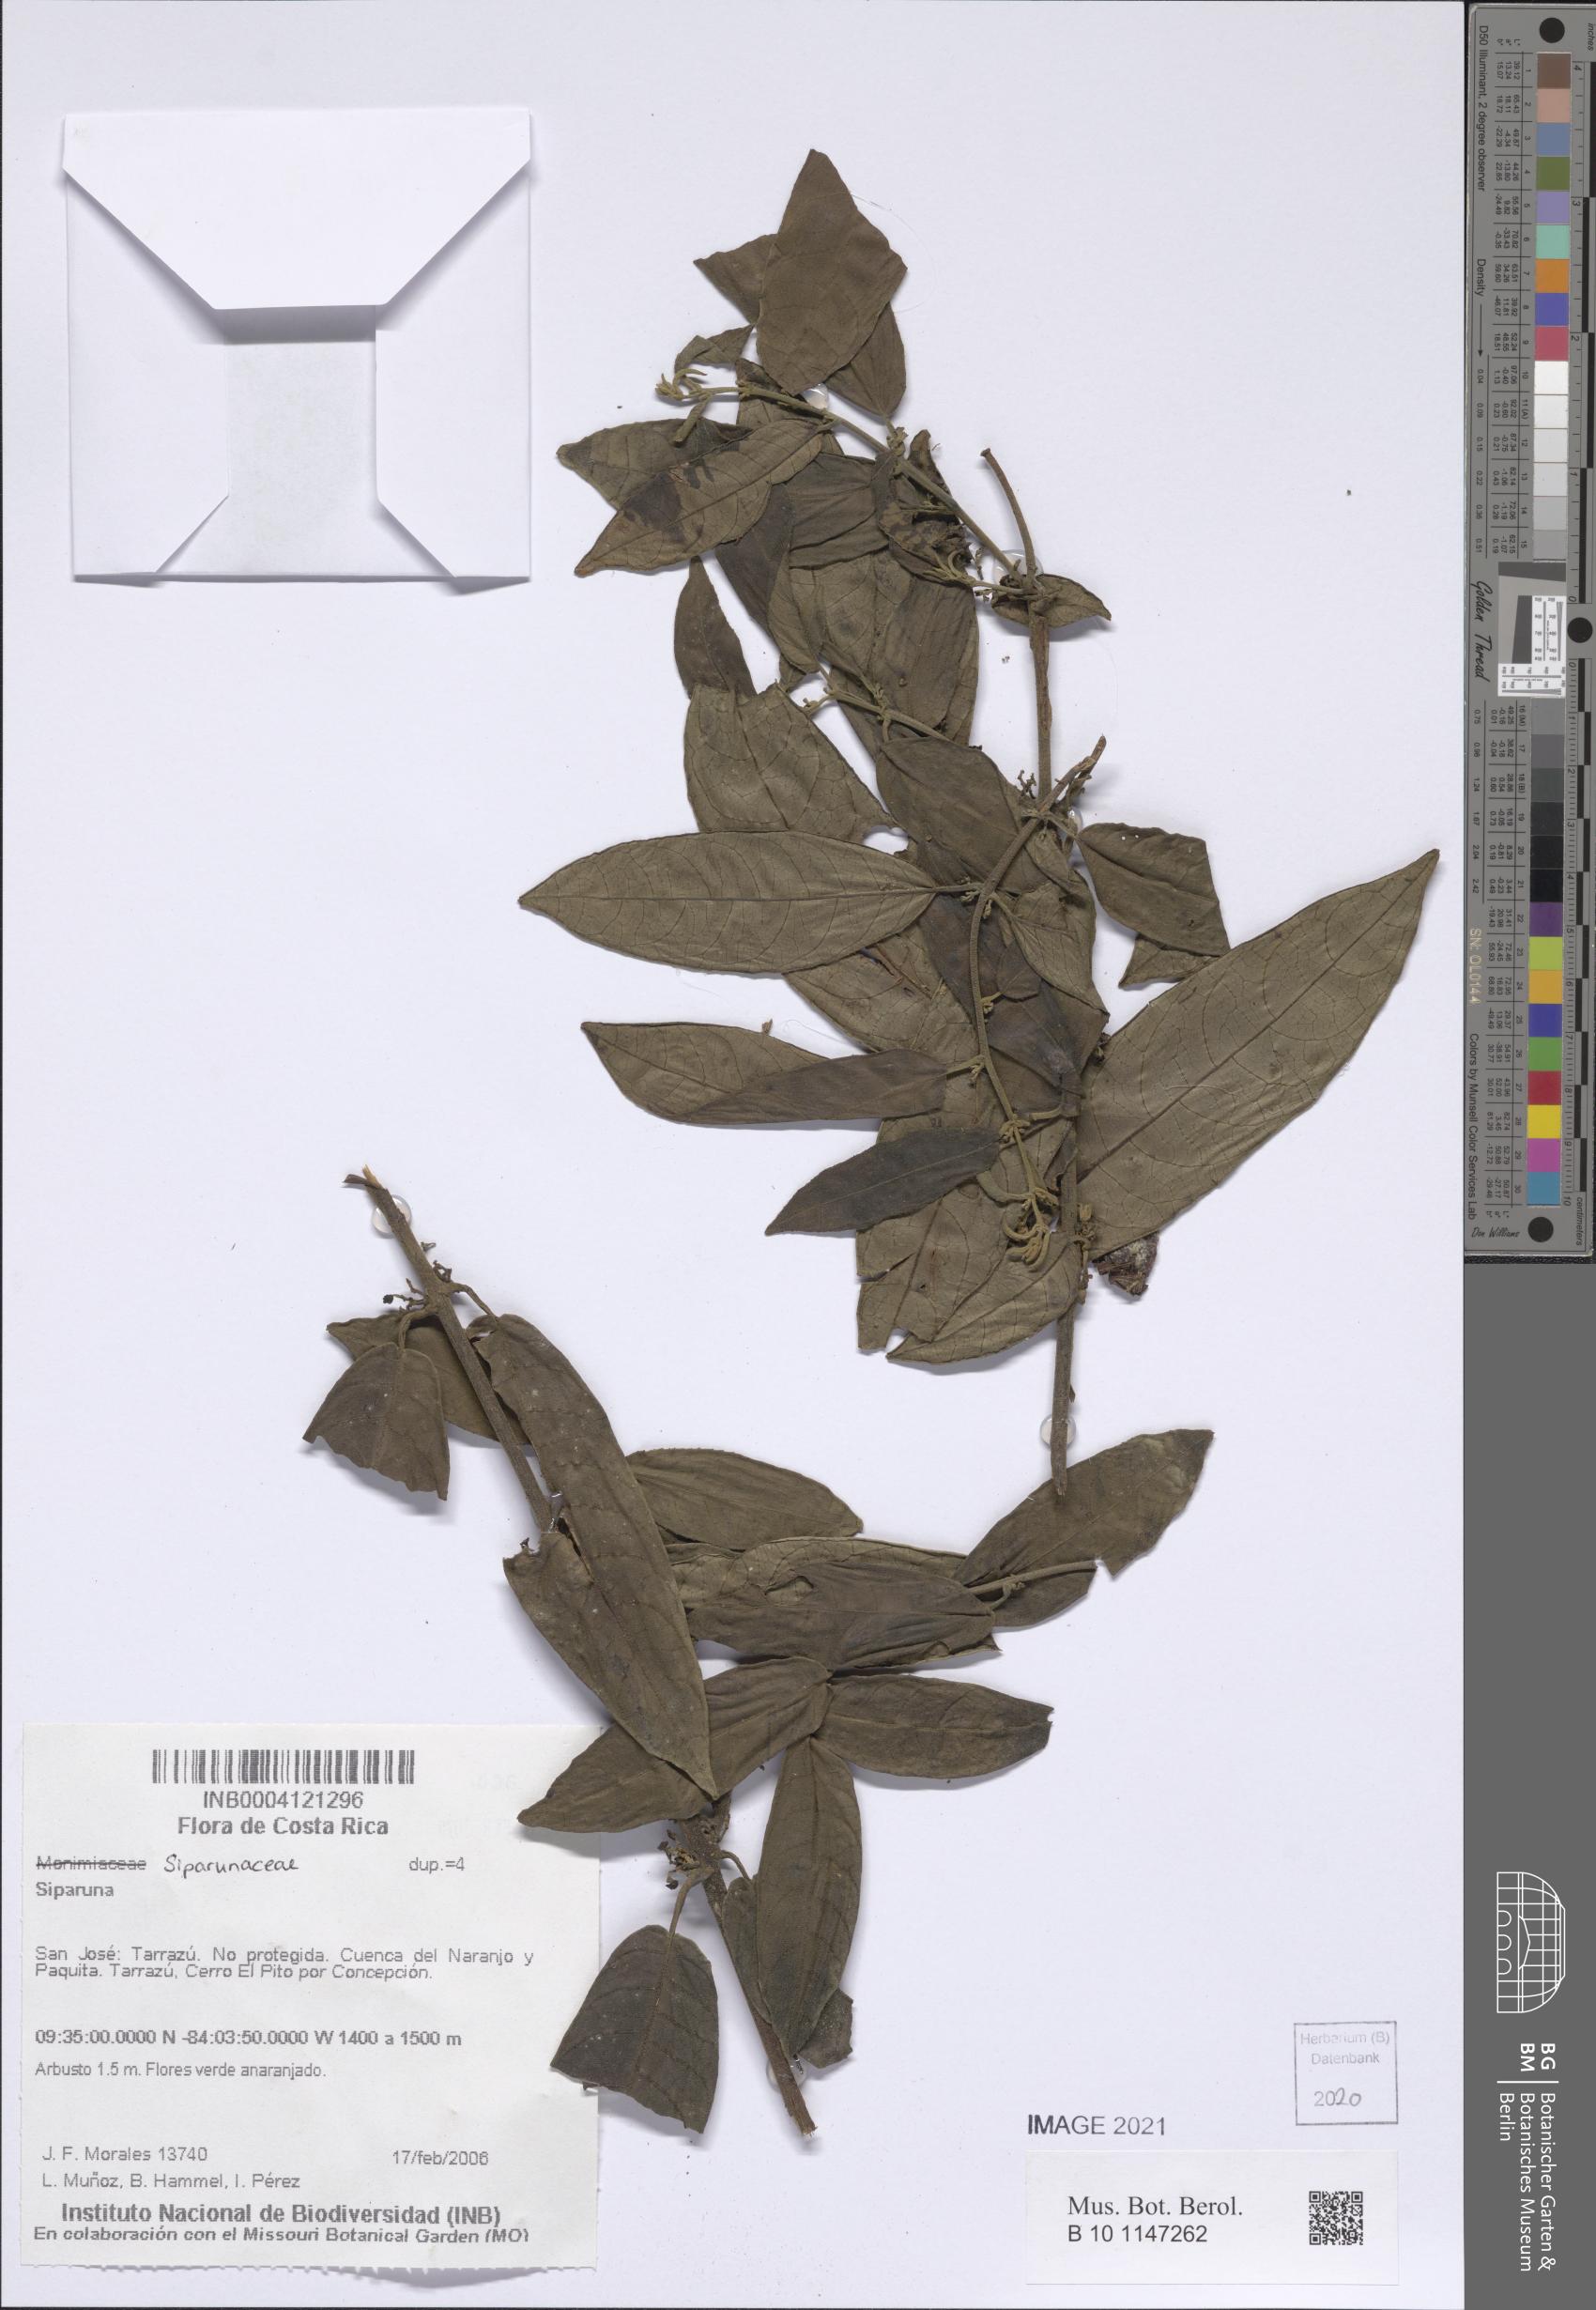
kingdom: Plantae
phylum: Tracheophyta
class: Magnoliopsida
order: Laurales
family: Siparunaceae
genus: Siparuna
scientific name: Siparuna
